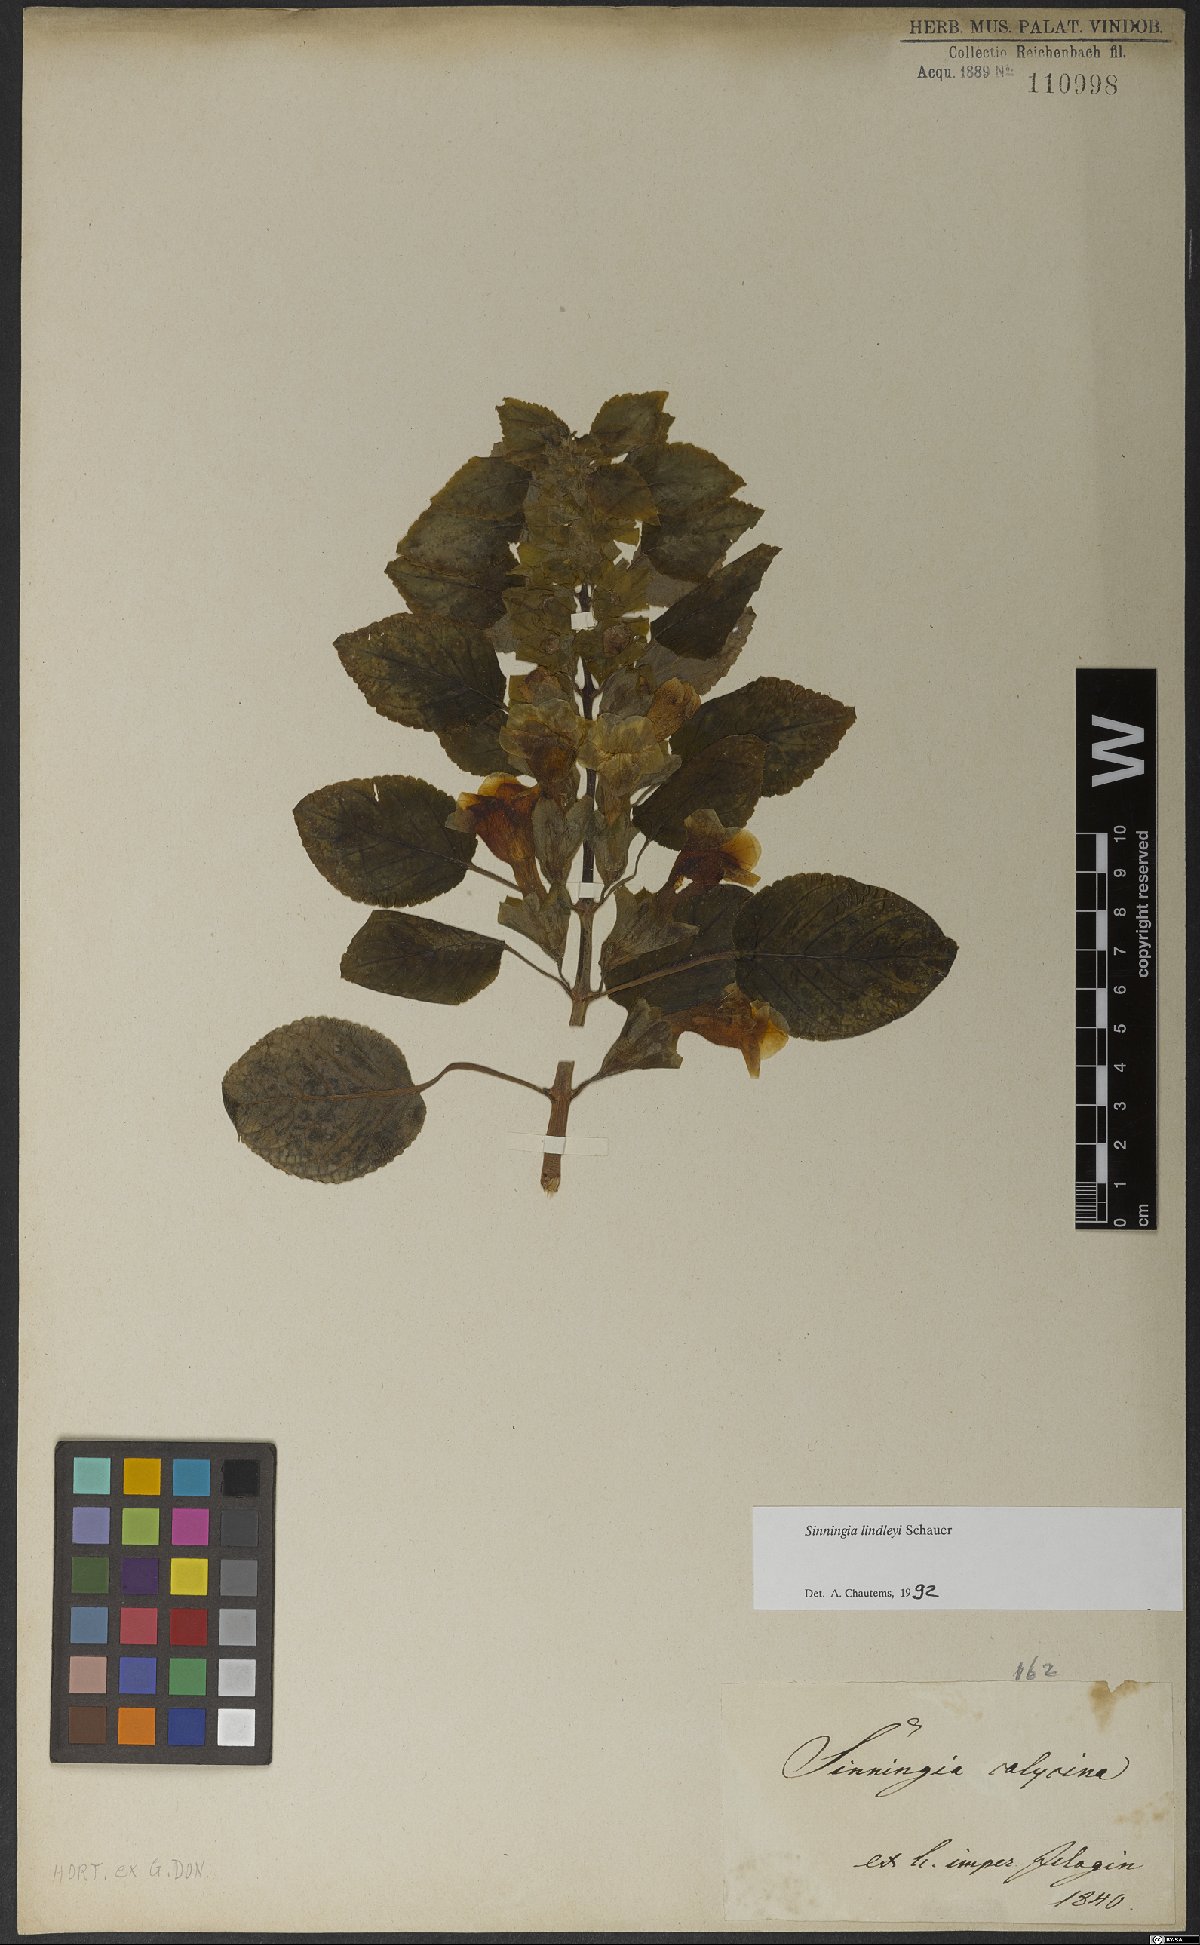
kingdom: Plantae
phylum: Tracheophyta
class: Magnoliopsida
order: Lamiales
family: Gesneriaceae
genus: Sinningia
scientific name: Sinningia lindleyi
